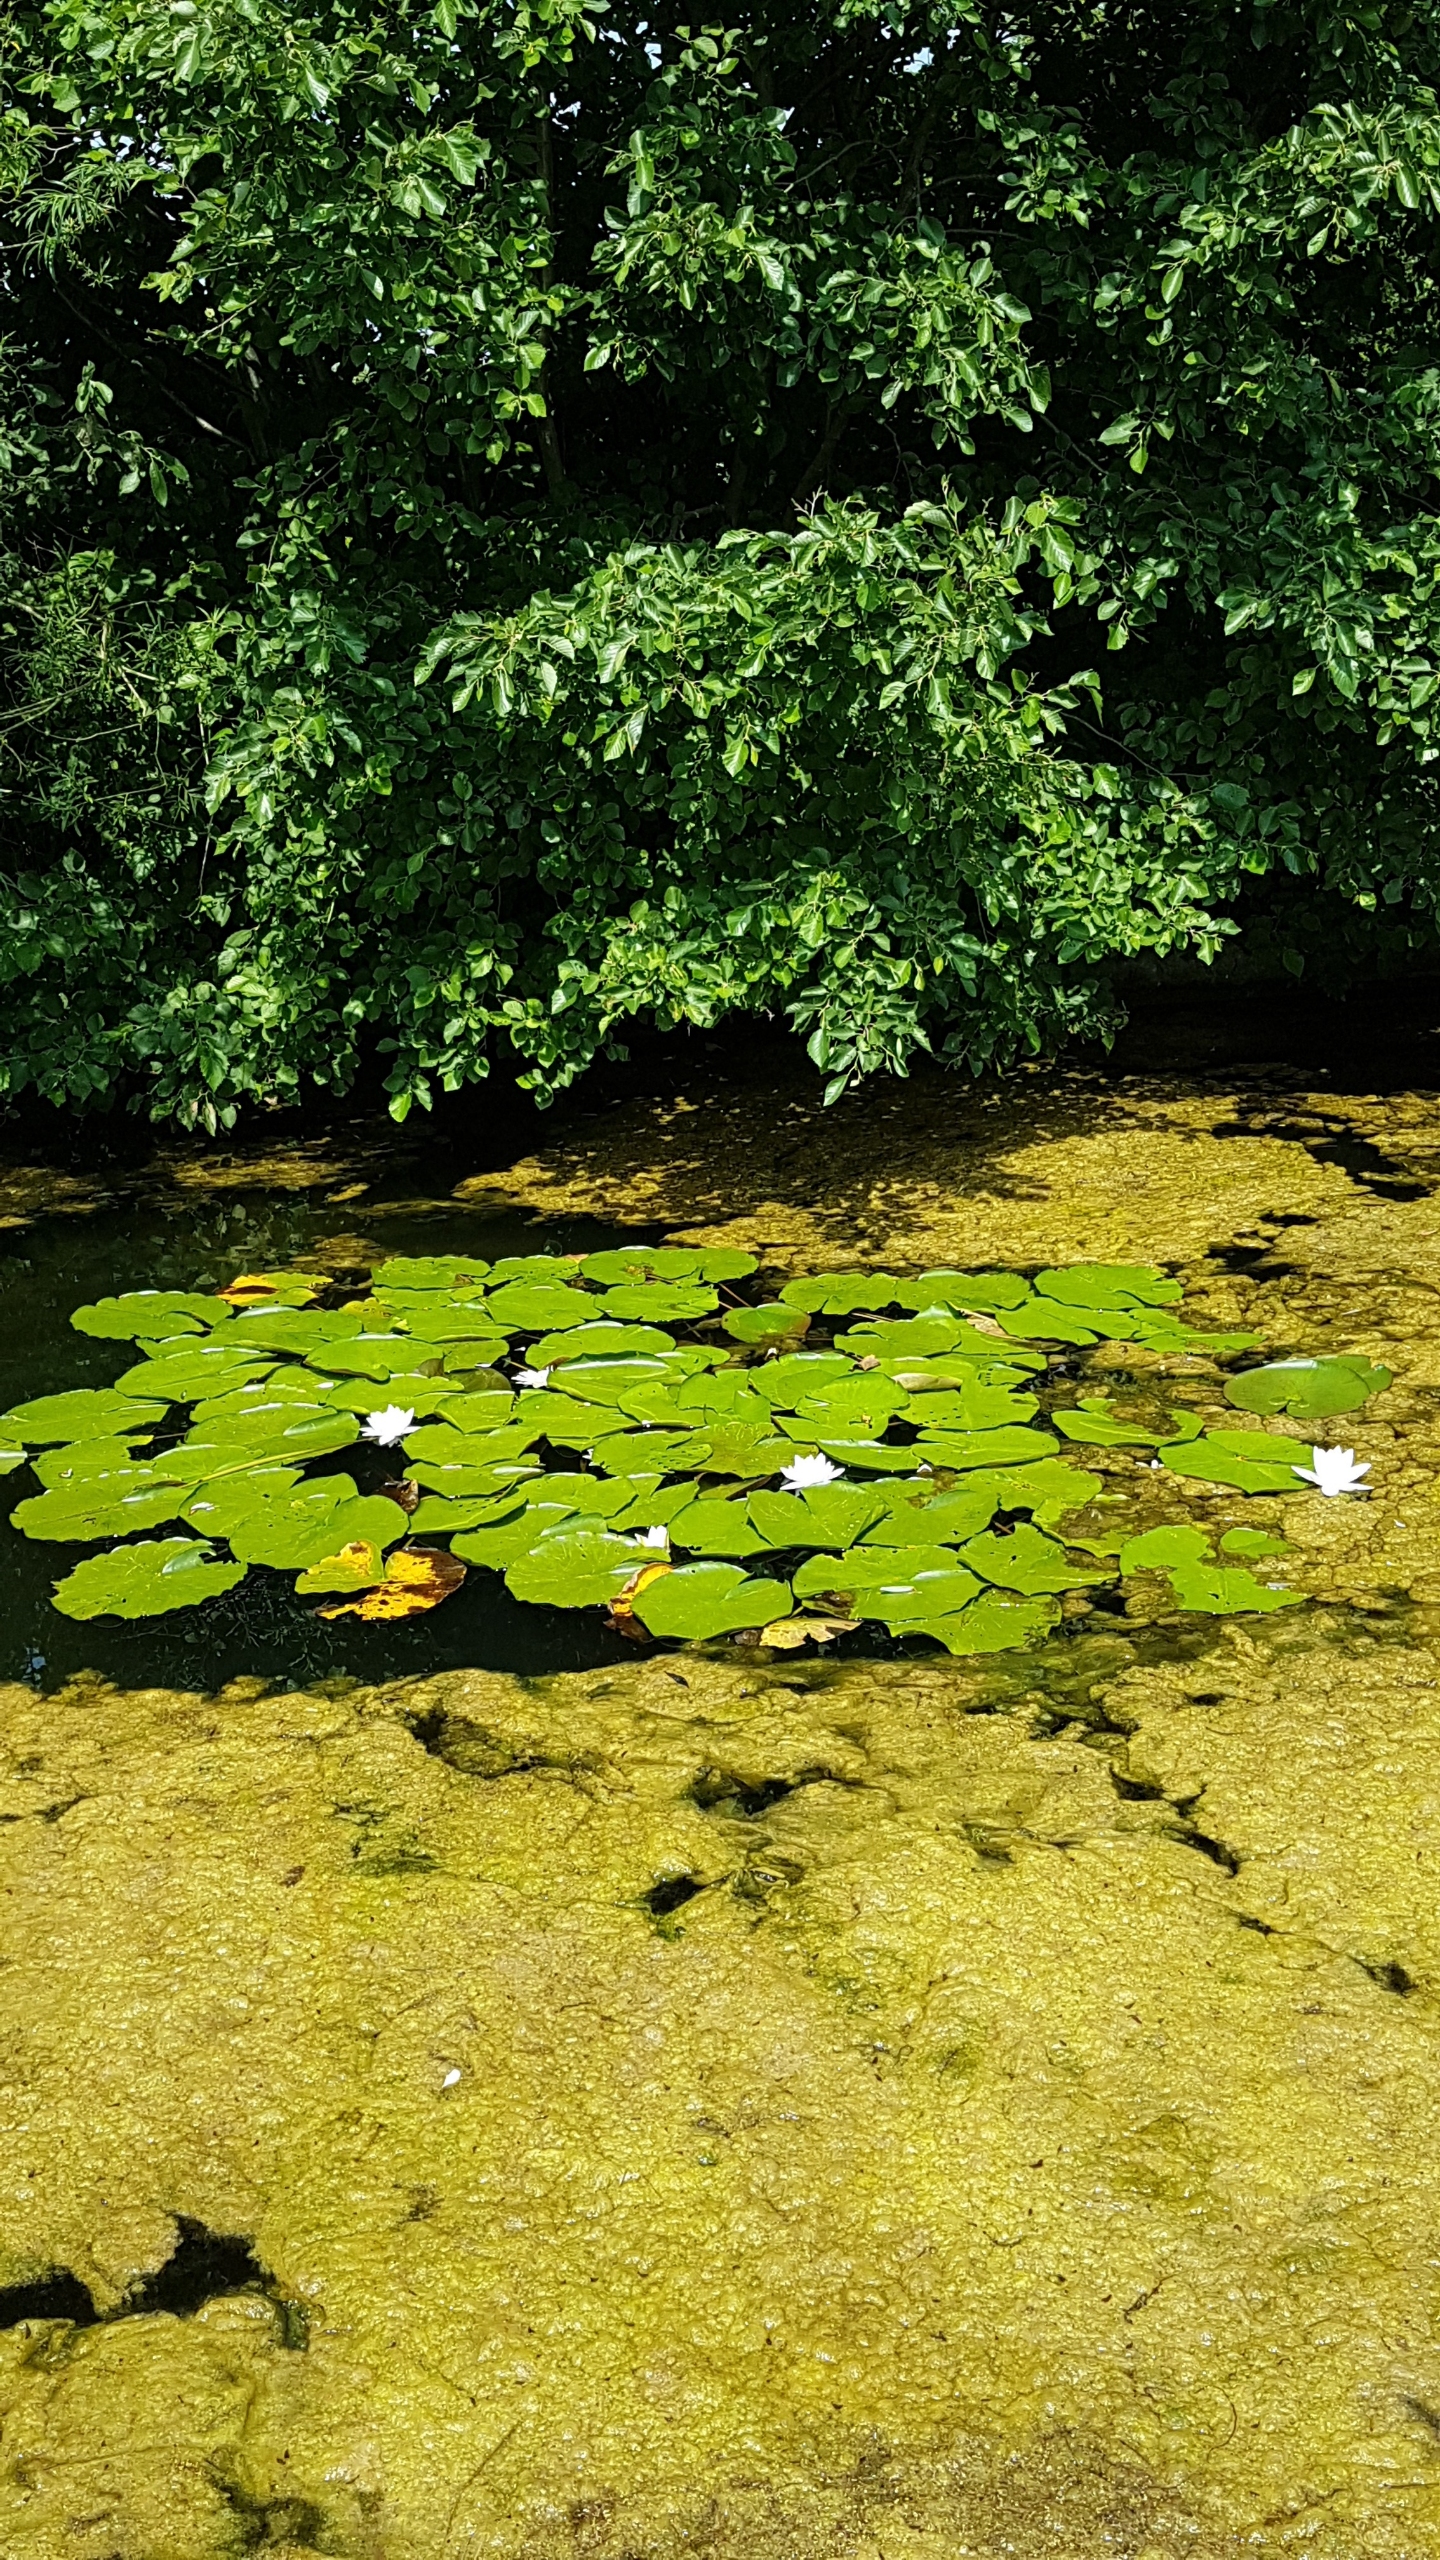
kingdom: Plantae
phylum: Tracheophyta
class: Magnoliopsida
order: Nymphaeales
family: Nymphaeaceae
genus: Nymphaea
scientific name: Nymphaea alba
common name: Hvid åkande
